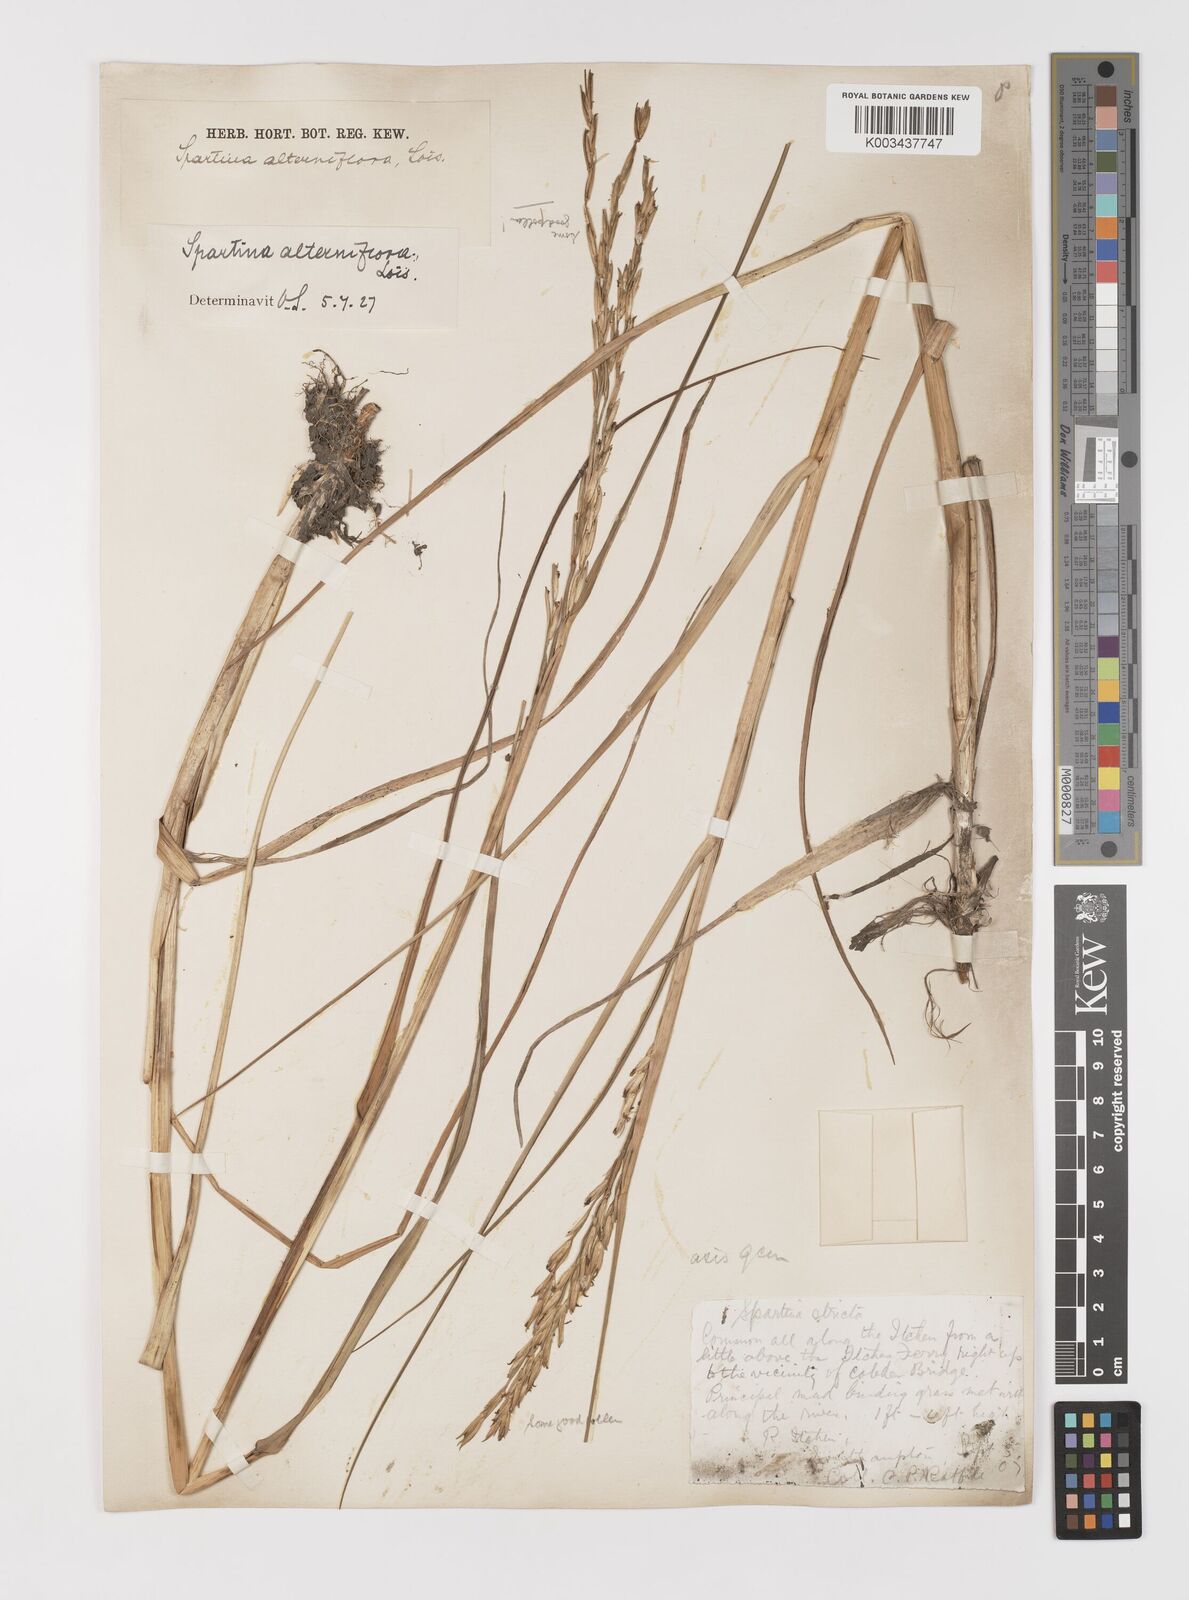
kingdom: Plantae
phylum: Tracheophyta
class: Liliopsida
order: Poales
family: Poaceae
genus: Sporobolus
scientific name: Sporobolus alterniflorus
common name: Atlantic cordgrass
